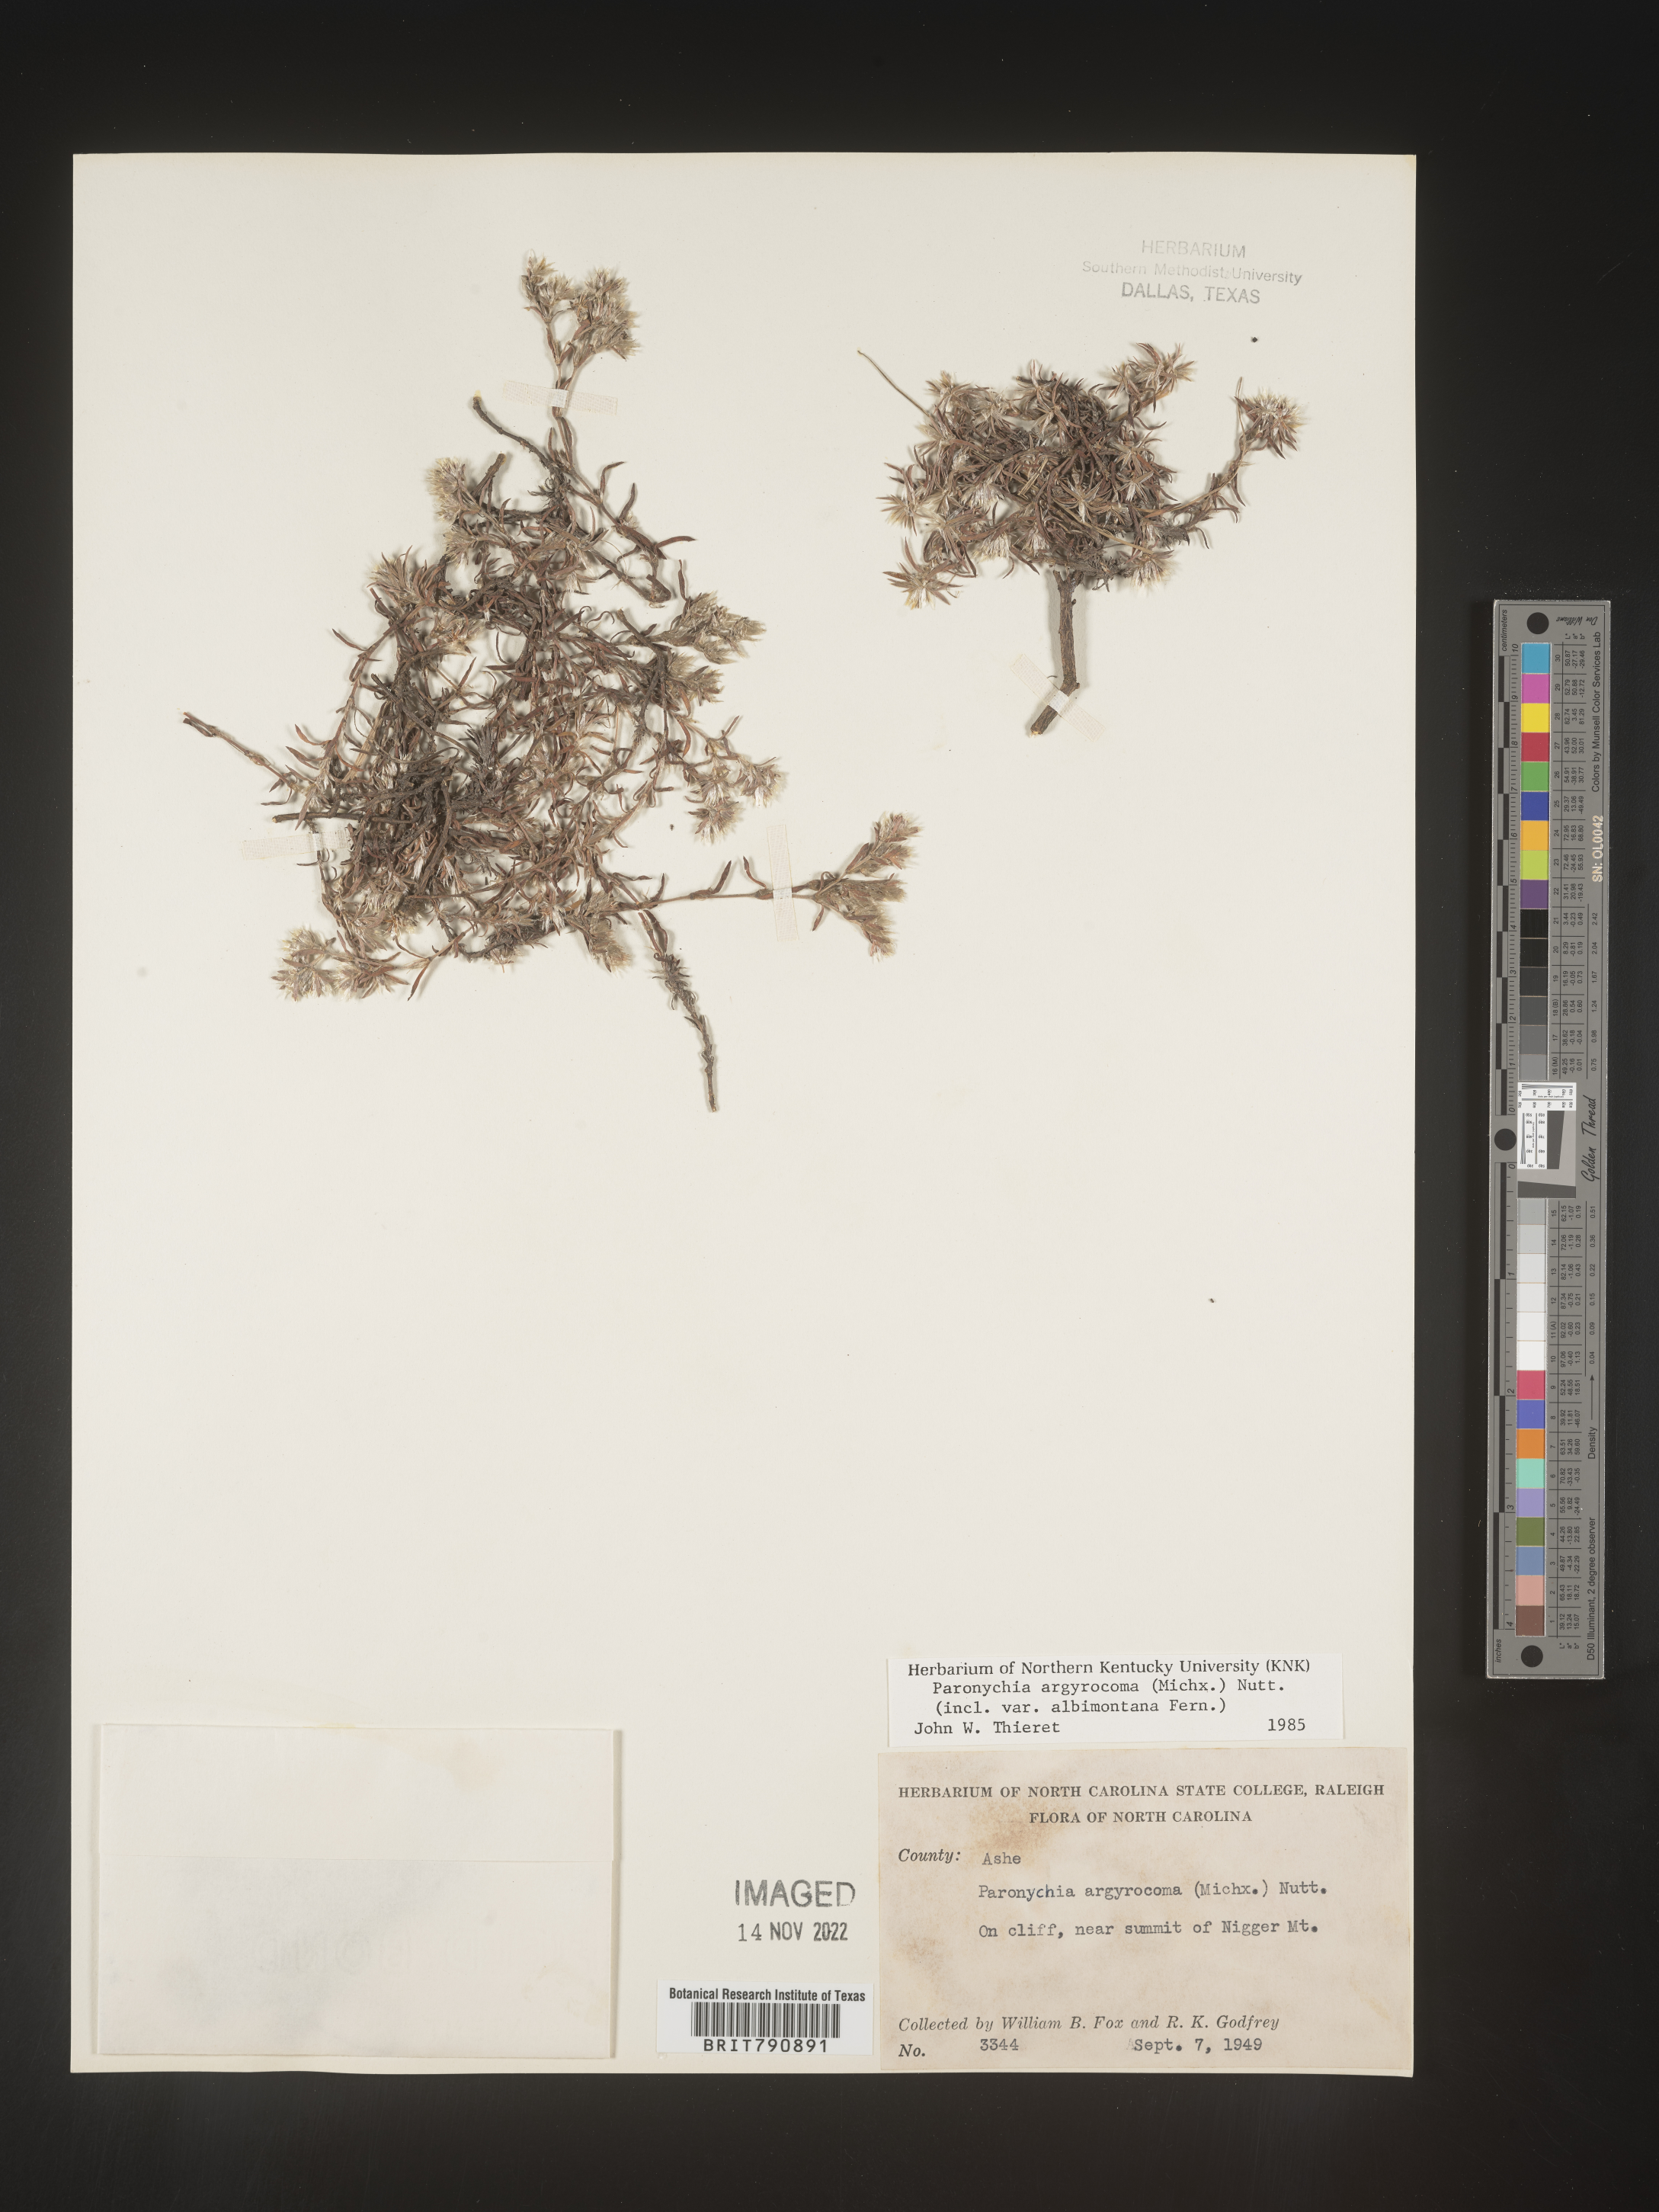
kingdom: Plantae
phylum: Tracheophyta
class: Magnoliopsida
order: Caryophyllales
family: Caryophyllaceae
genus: Paronychia
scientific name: Paronychia argyrocoma
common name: Silverling
